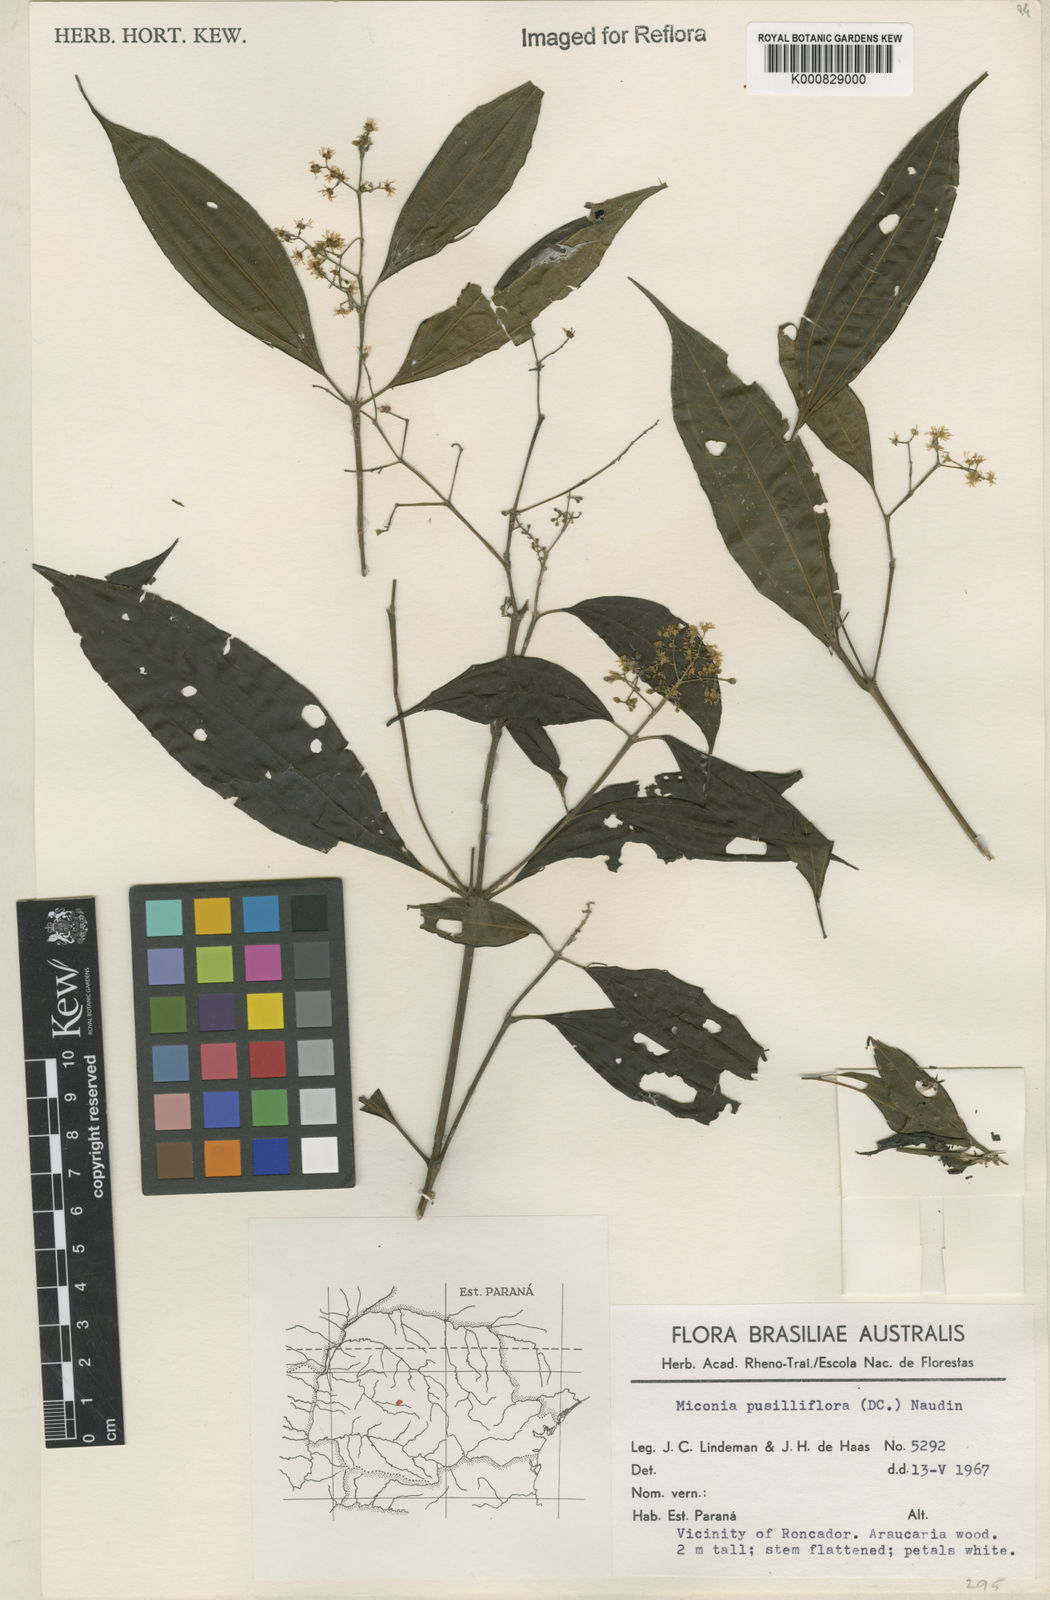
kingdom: Plantae
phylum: Tracheophyta
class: Magnoliopsida
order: Myrtales
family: Melastomataceae
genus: Miconia
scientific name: Miconia pusilliflora
